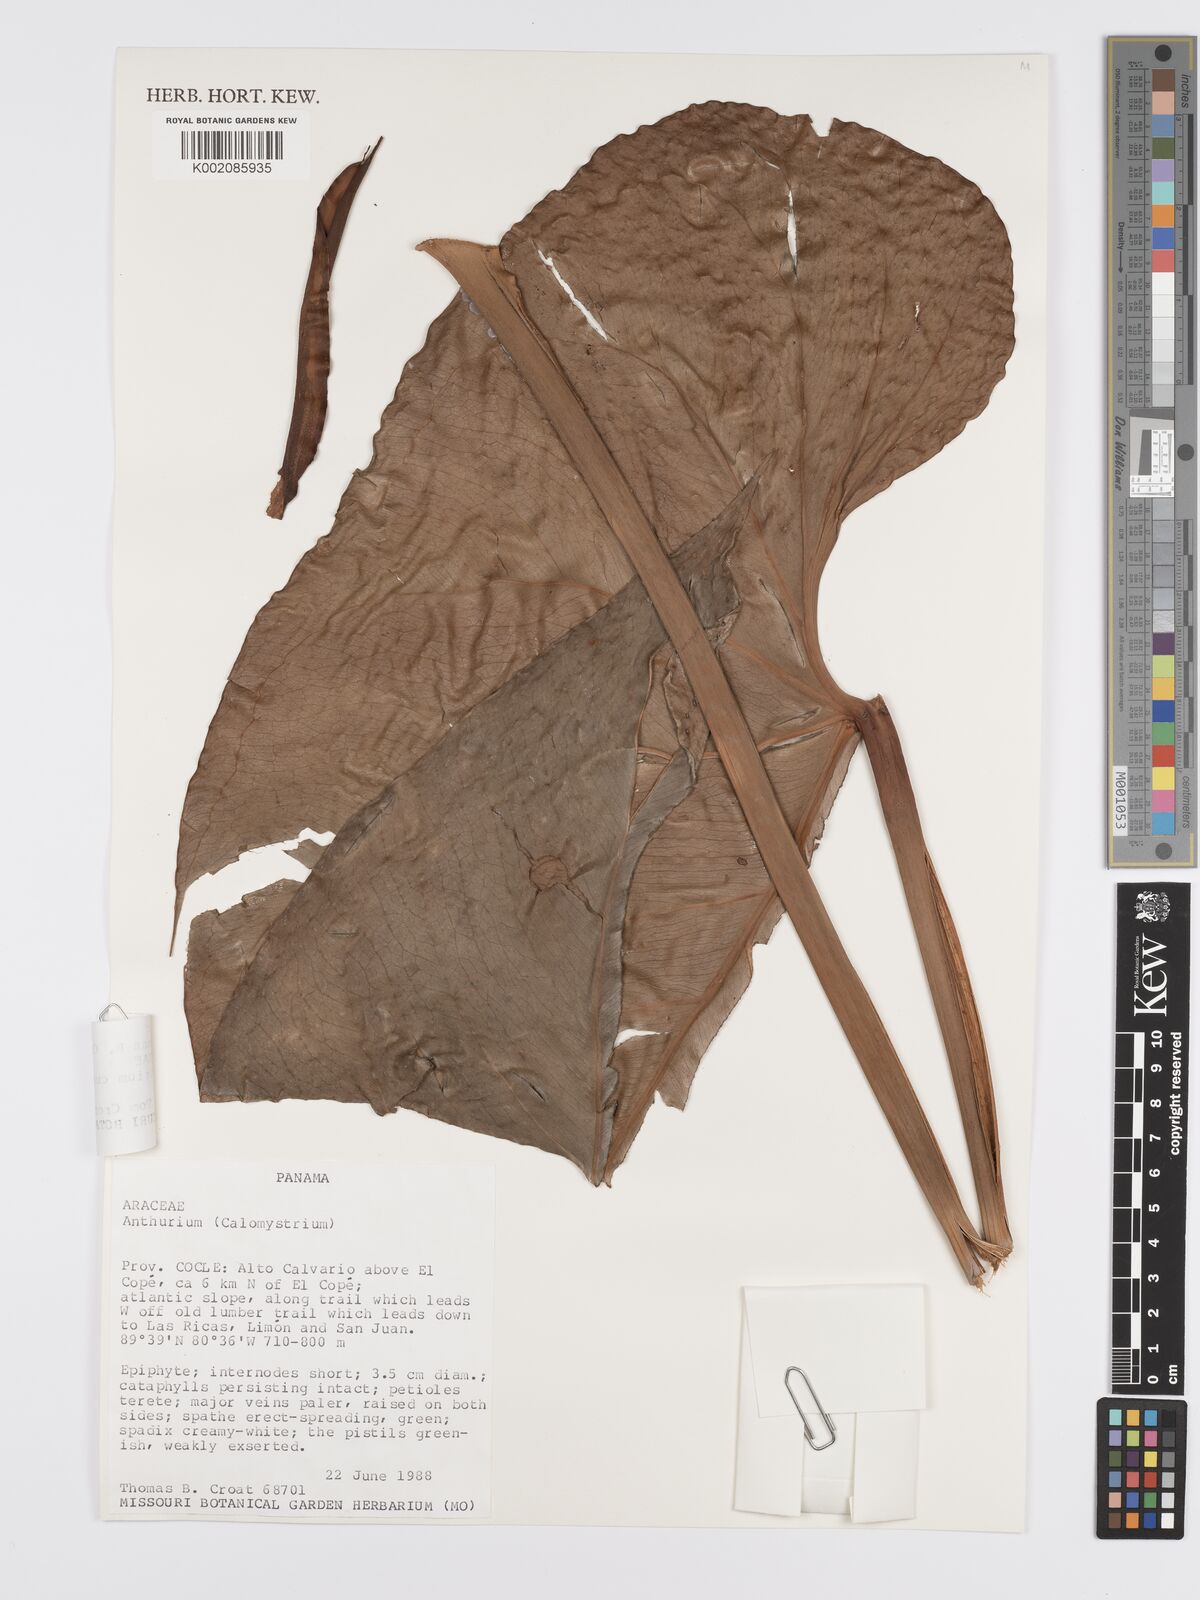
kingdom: Plantae
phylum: Tracheophyta
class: Liliopsida
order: Alismatales
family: Araceae
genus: Anthurium
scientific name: Anthurium curvispadix
